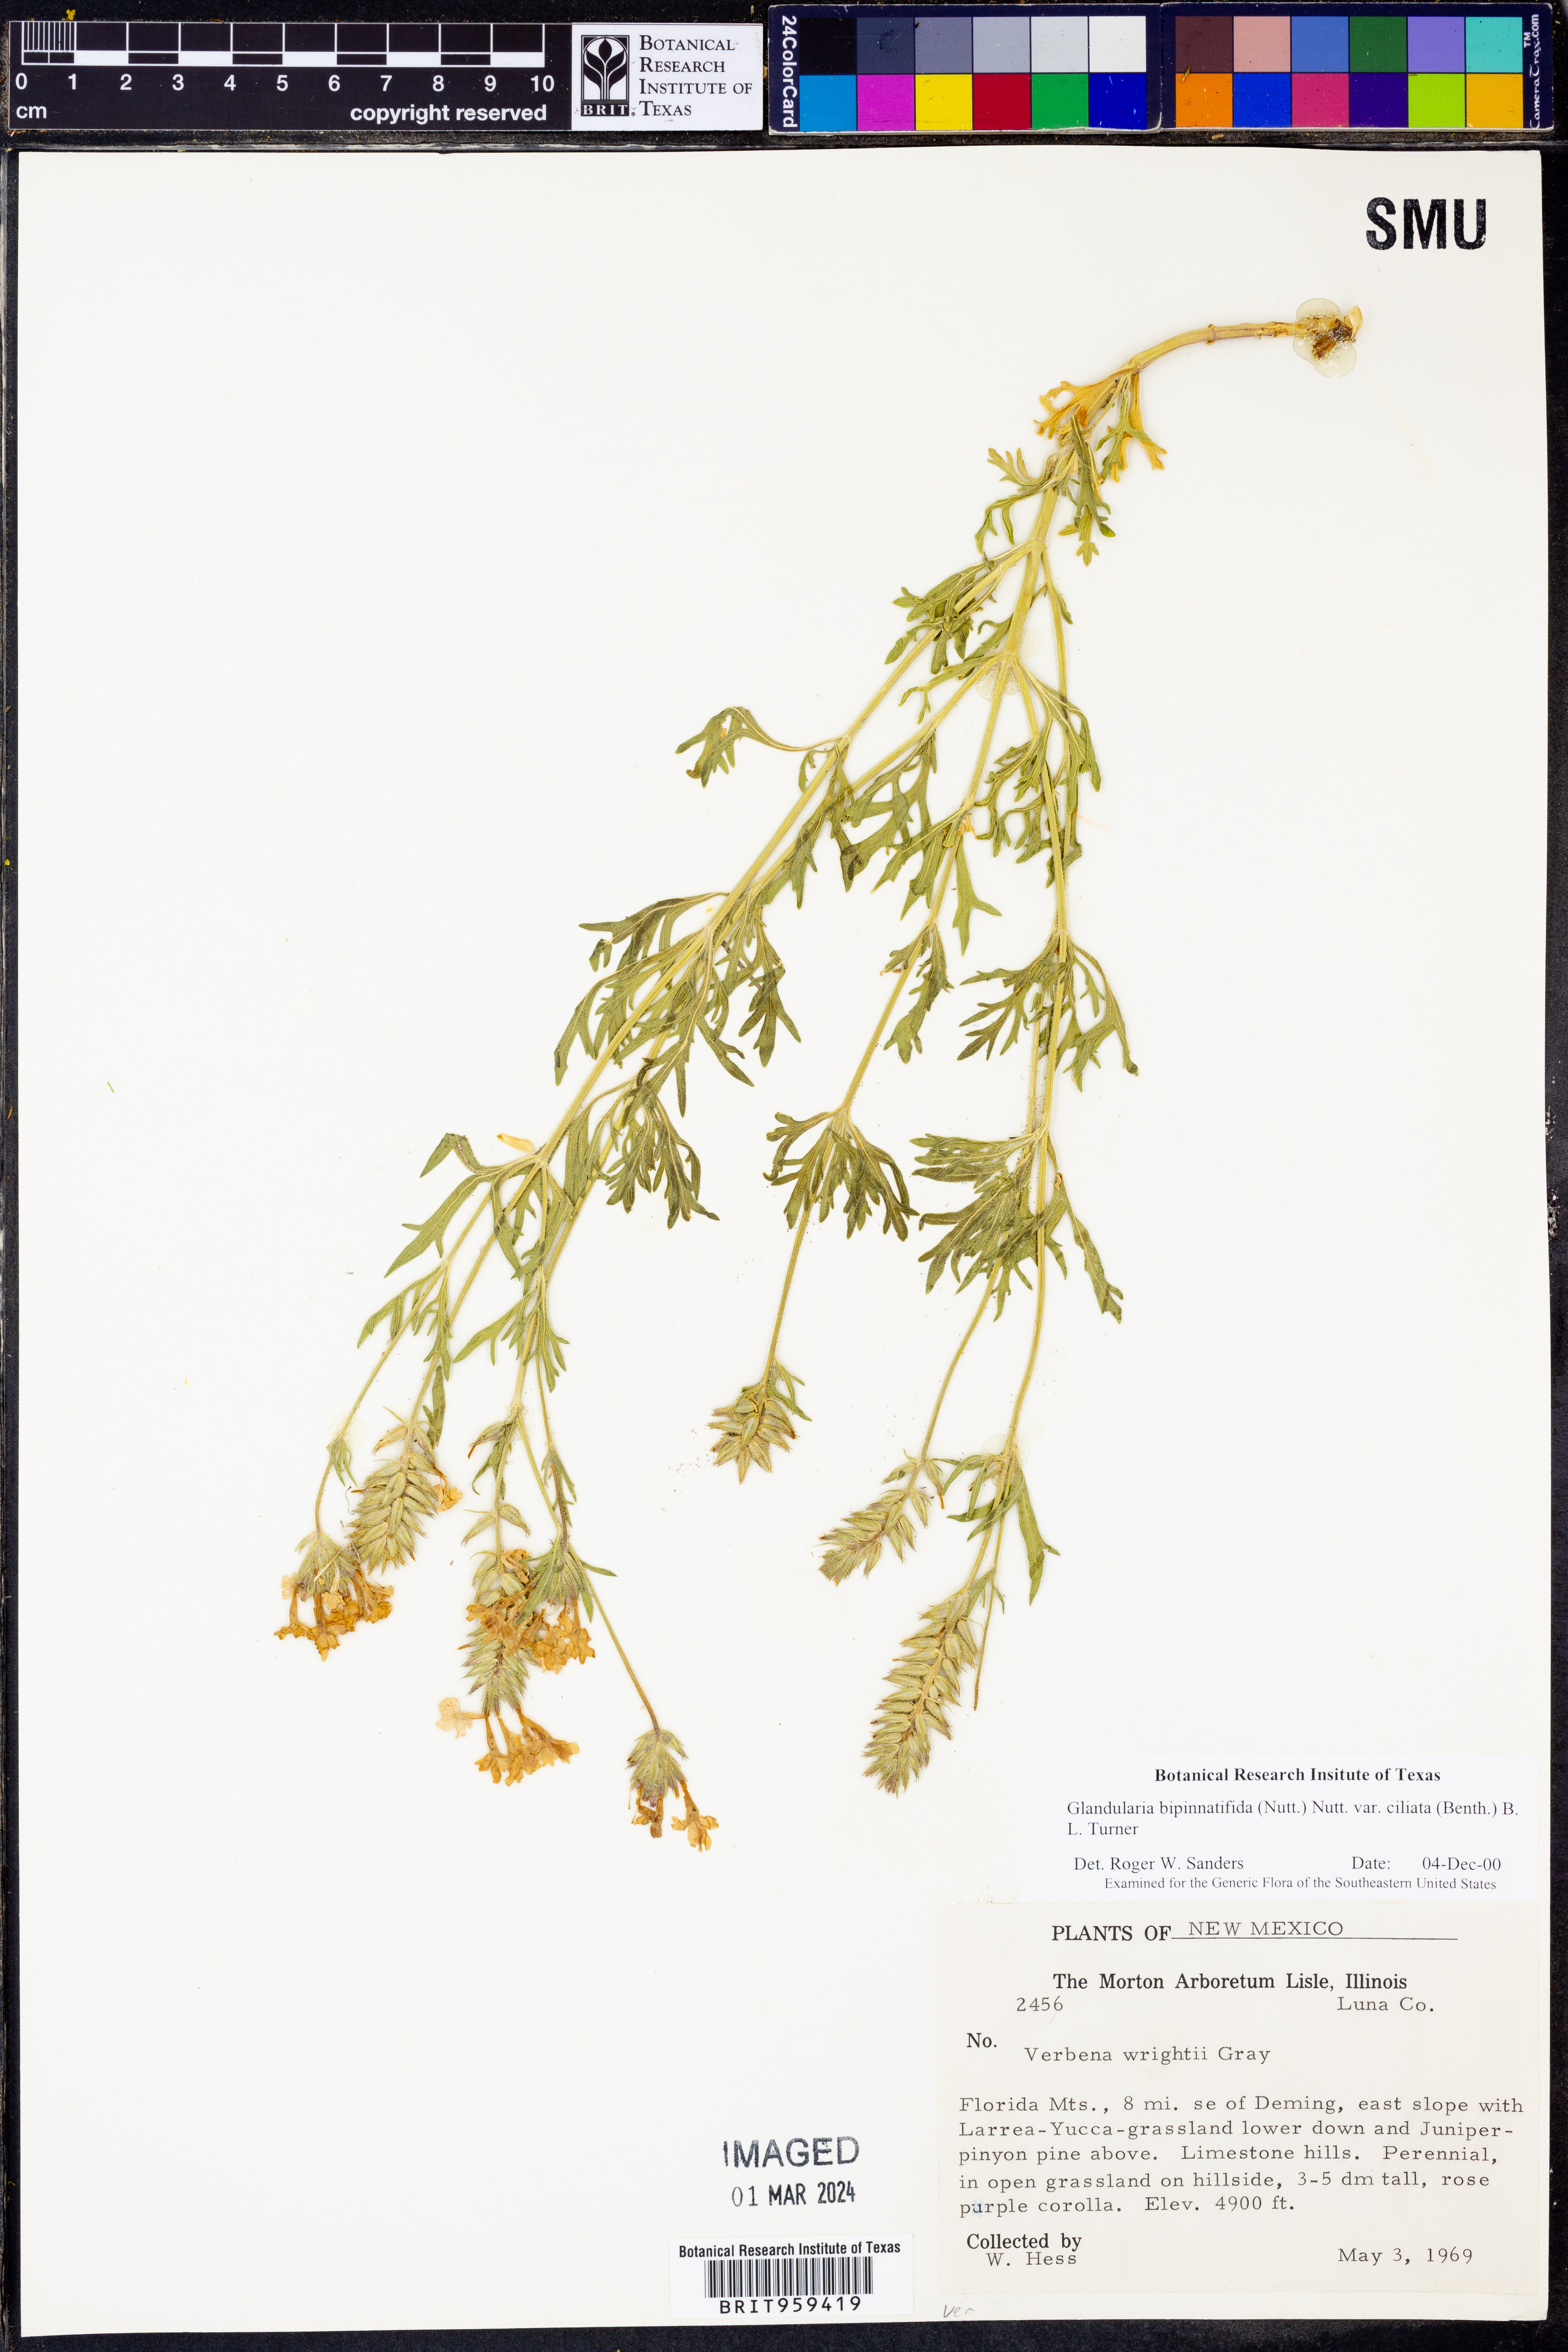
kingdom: Plantae
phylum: Tracheophyta
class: Magnoliopsida
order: Lamiales
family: Verbenaceae
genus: Verbena
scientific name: Verbena bipinnatifida
